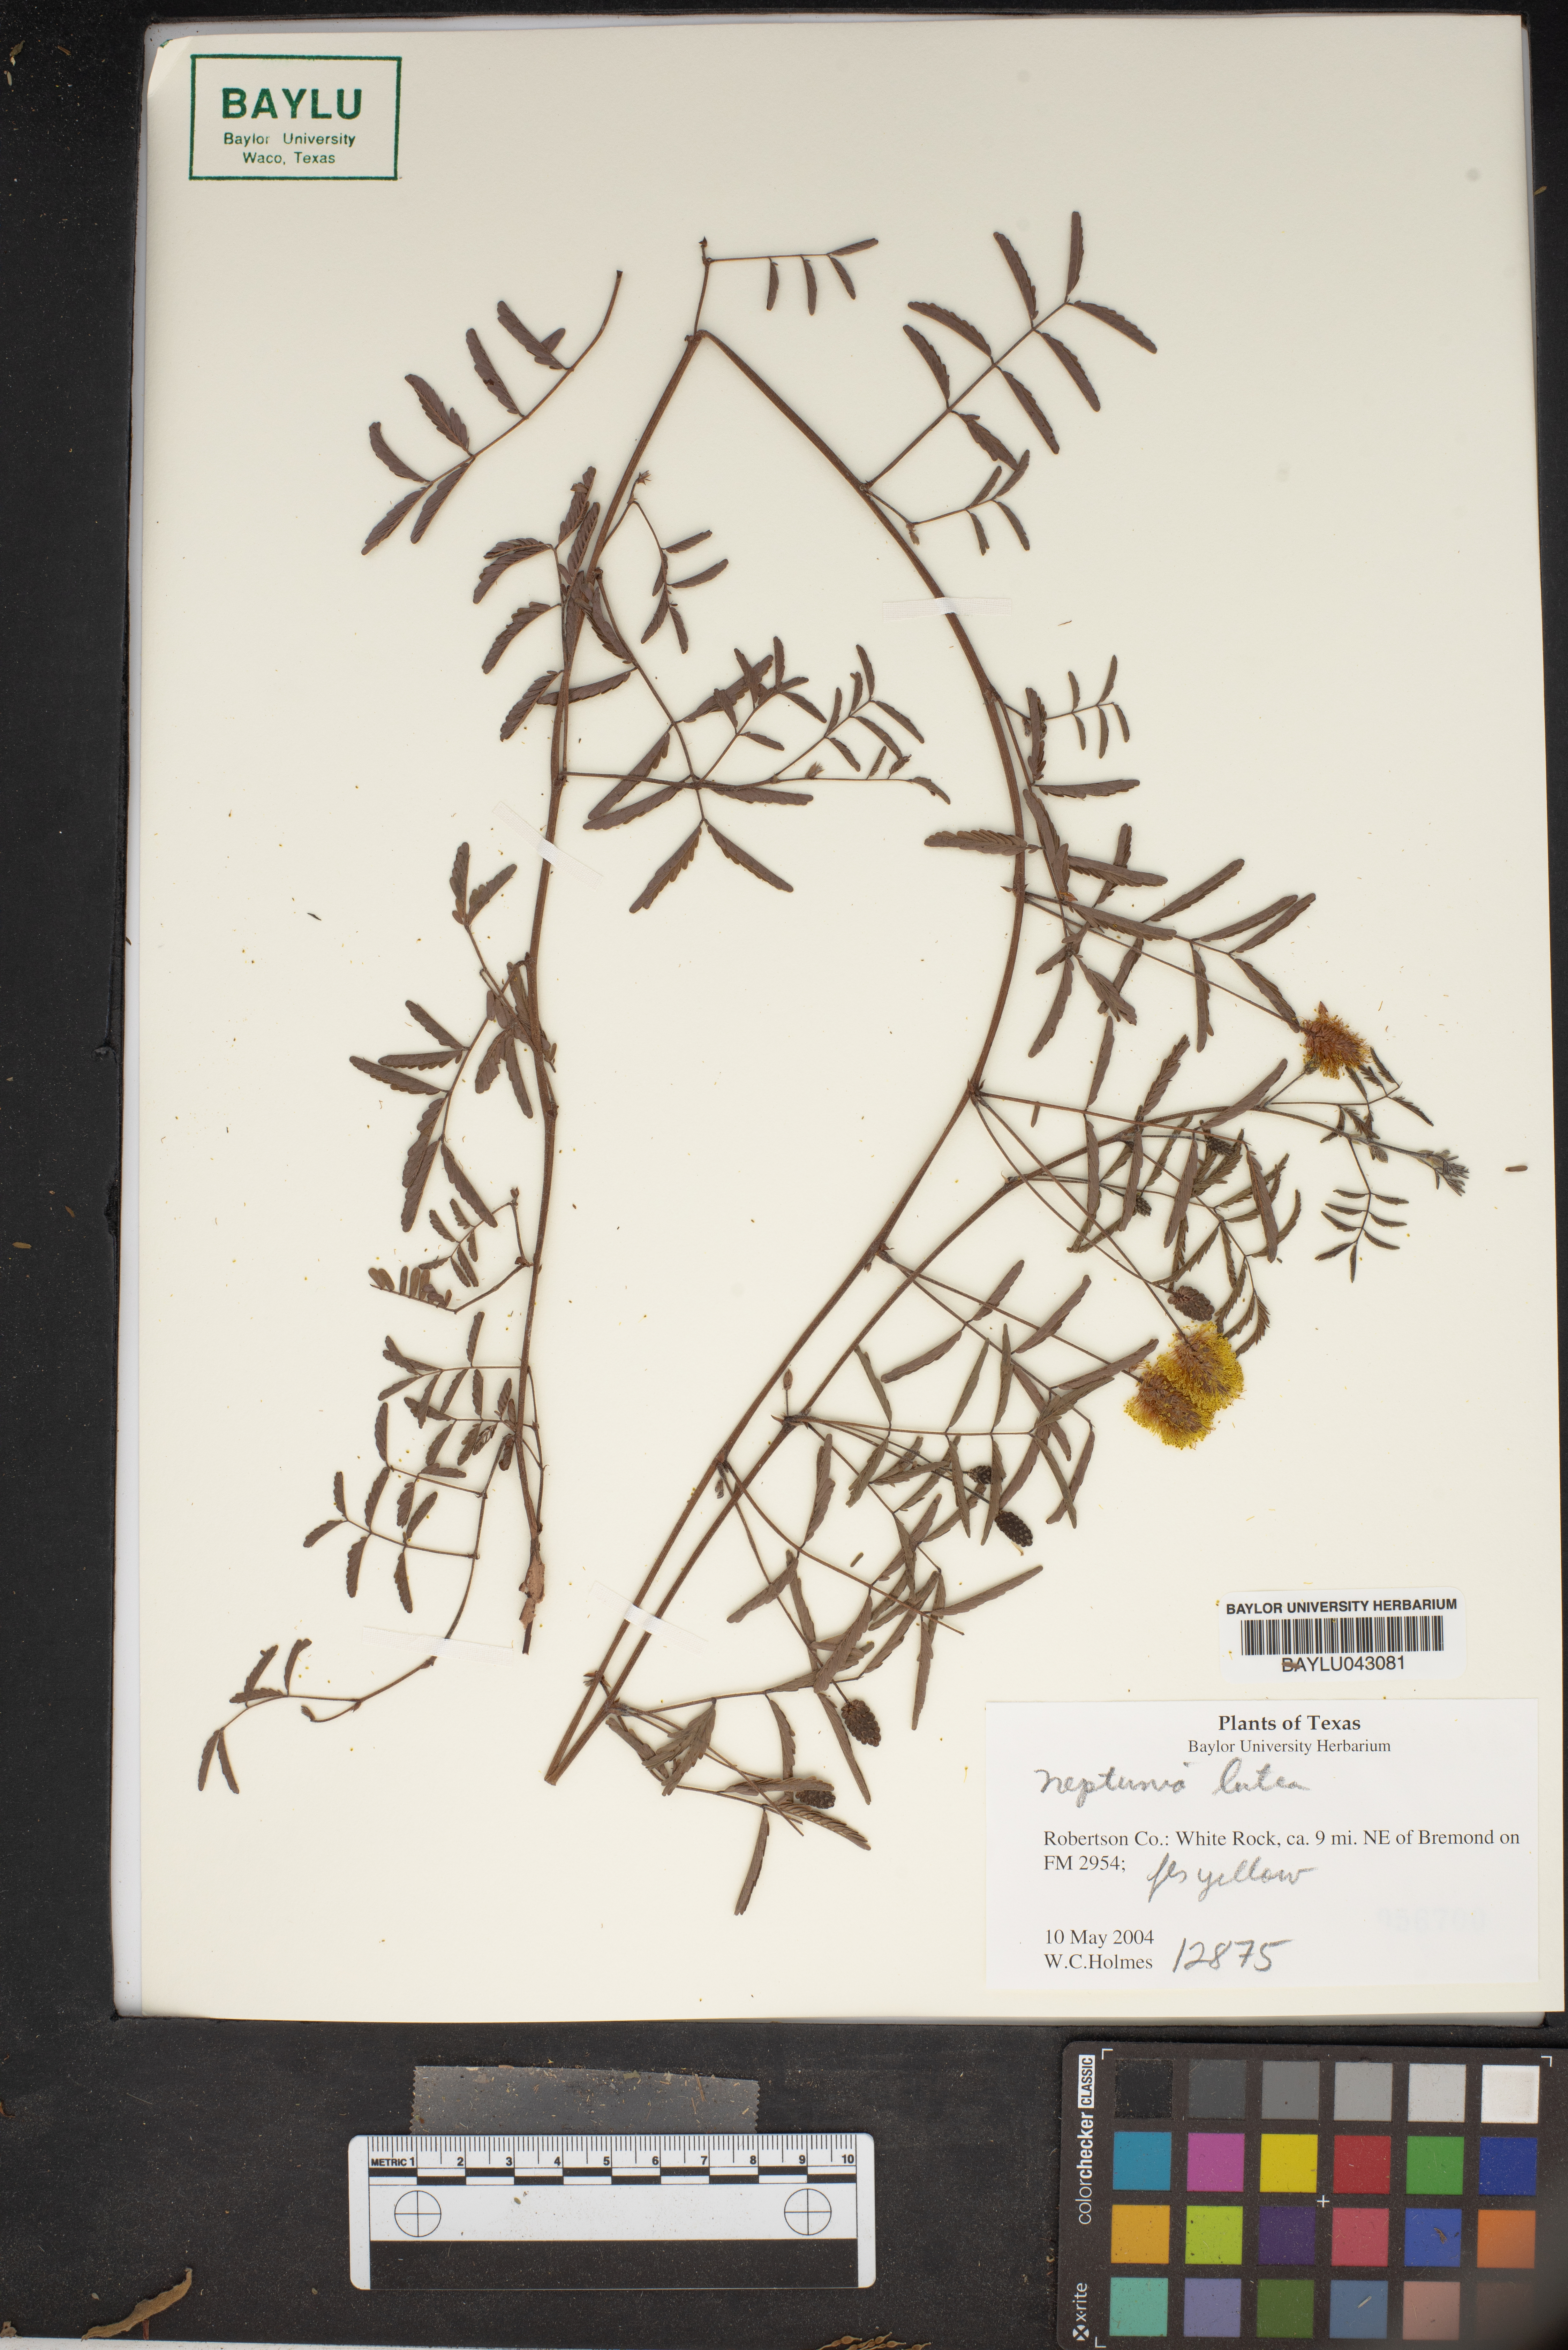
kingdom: Plantae
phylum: Tracheophyta
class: Magnoliopsida
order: Fabales
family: Fabaceae
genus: Neptunia
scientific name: Neptunia lutea
